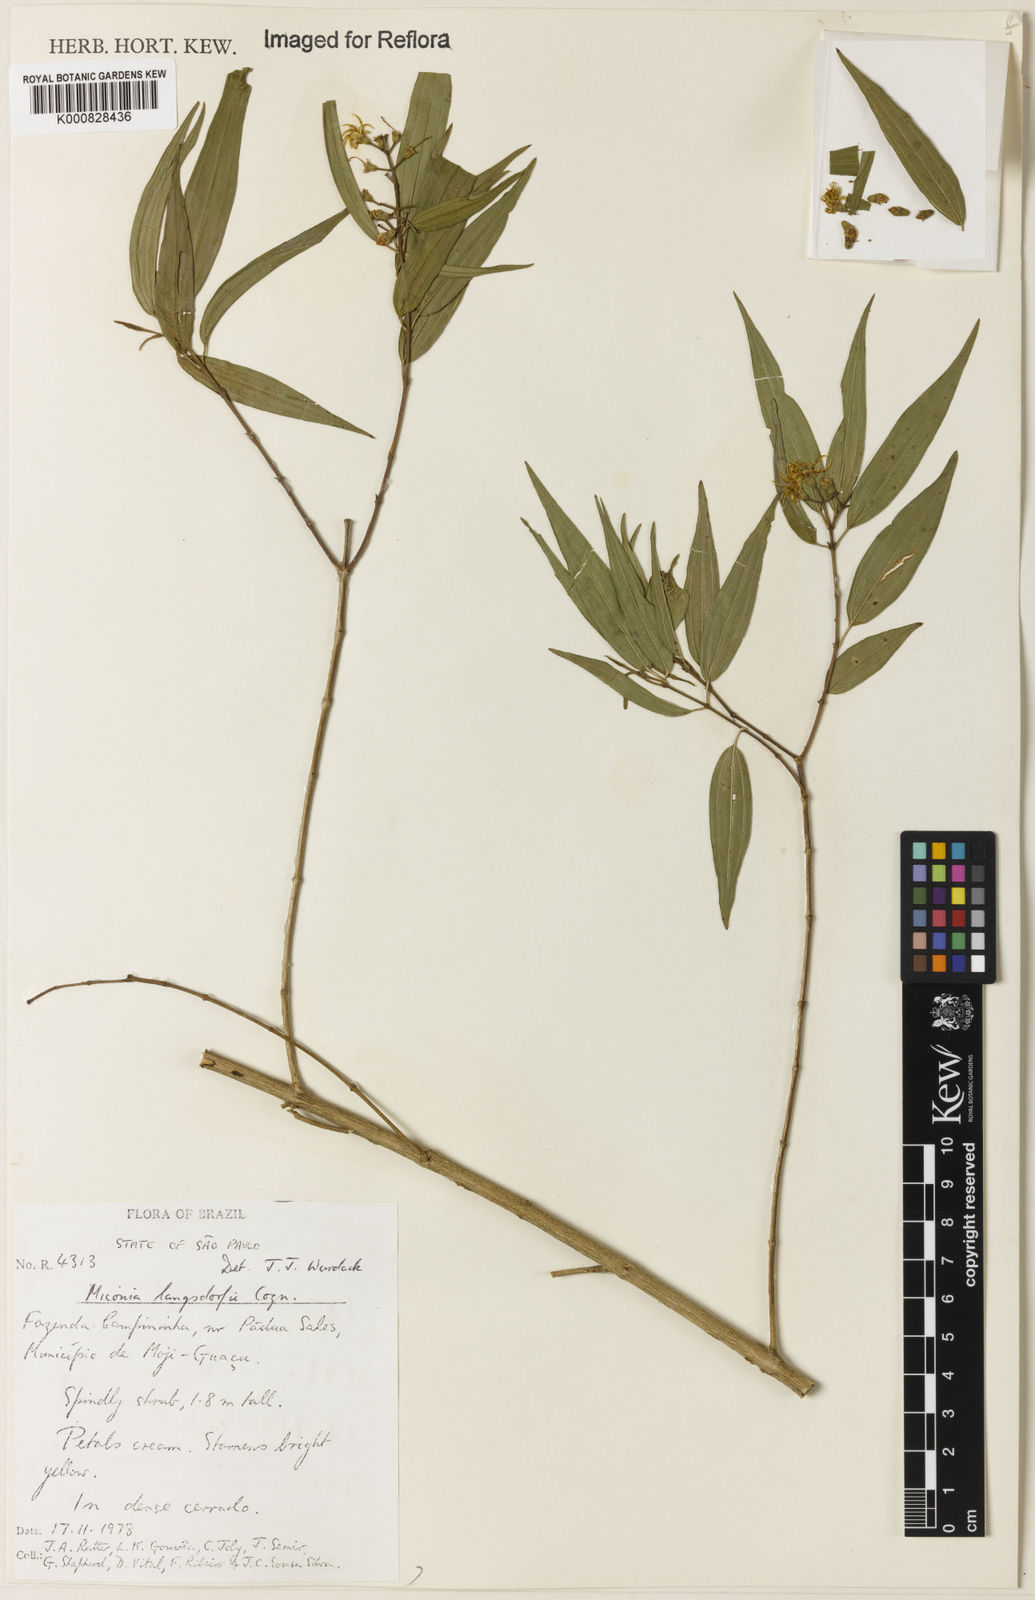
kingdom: Plantae
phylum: Tracheophyta
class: Magnoliopsida
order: Myrtales
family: Melastomataceae
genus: Miconia
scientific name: Miconia langsdorffii
